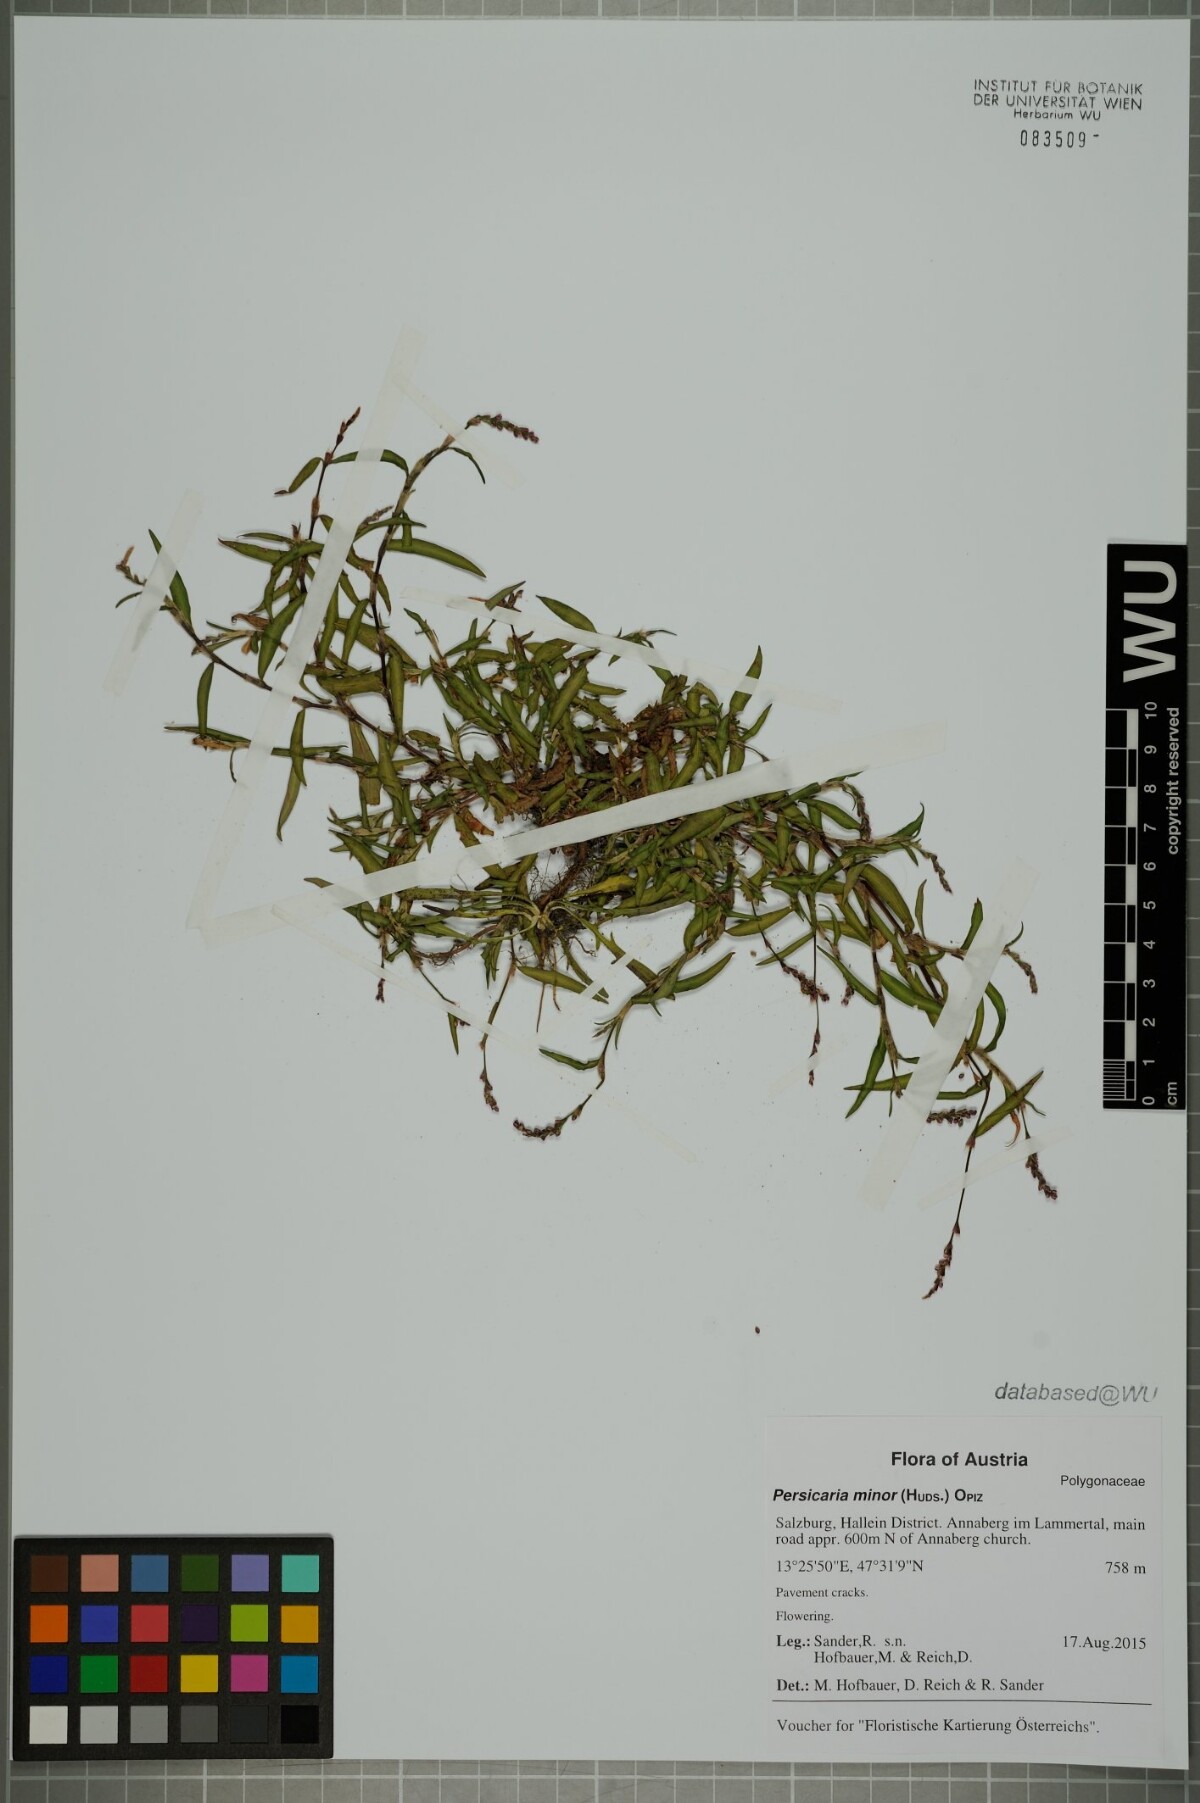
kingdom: Plantae
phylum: Tracheophyta
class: Magnoliopsida
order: Caryophyllales
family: Polygonaceae
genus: Persicaria
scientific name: Persicaria minor
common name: Small water-pepper
